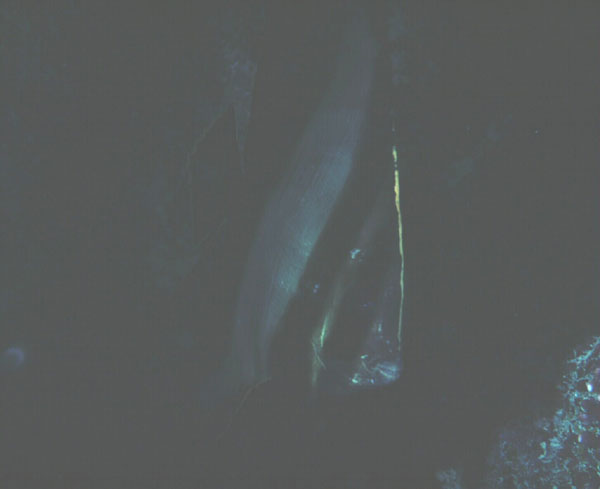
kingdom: Animalia
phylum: Chordata
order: Perciformes
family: Ephippidae
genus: Platax
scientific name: Platax pinnatus
